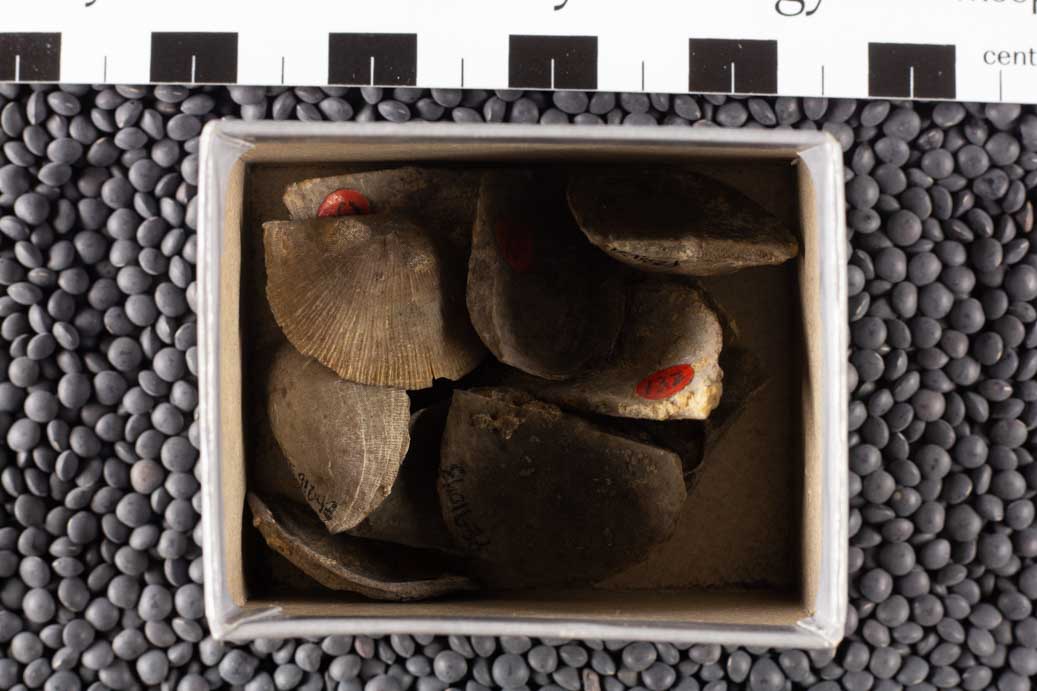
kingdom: Animalia
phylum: Brachiopoda
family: Streptorhynchidae
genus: Streptorhynchus
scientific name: Streptorhynchus
